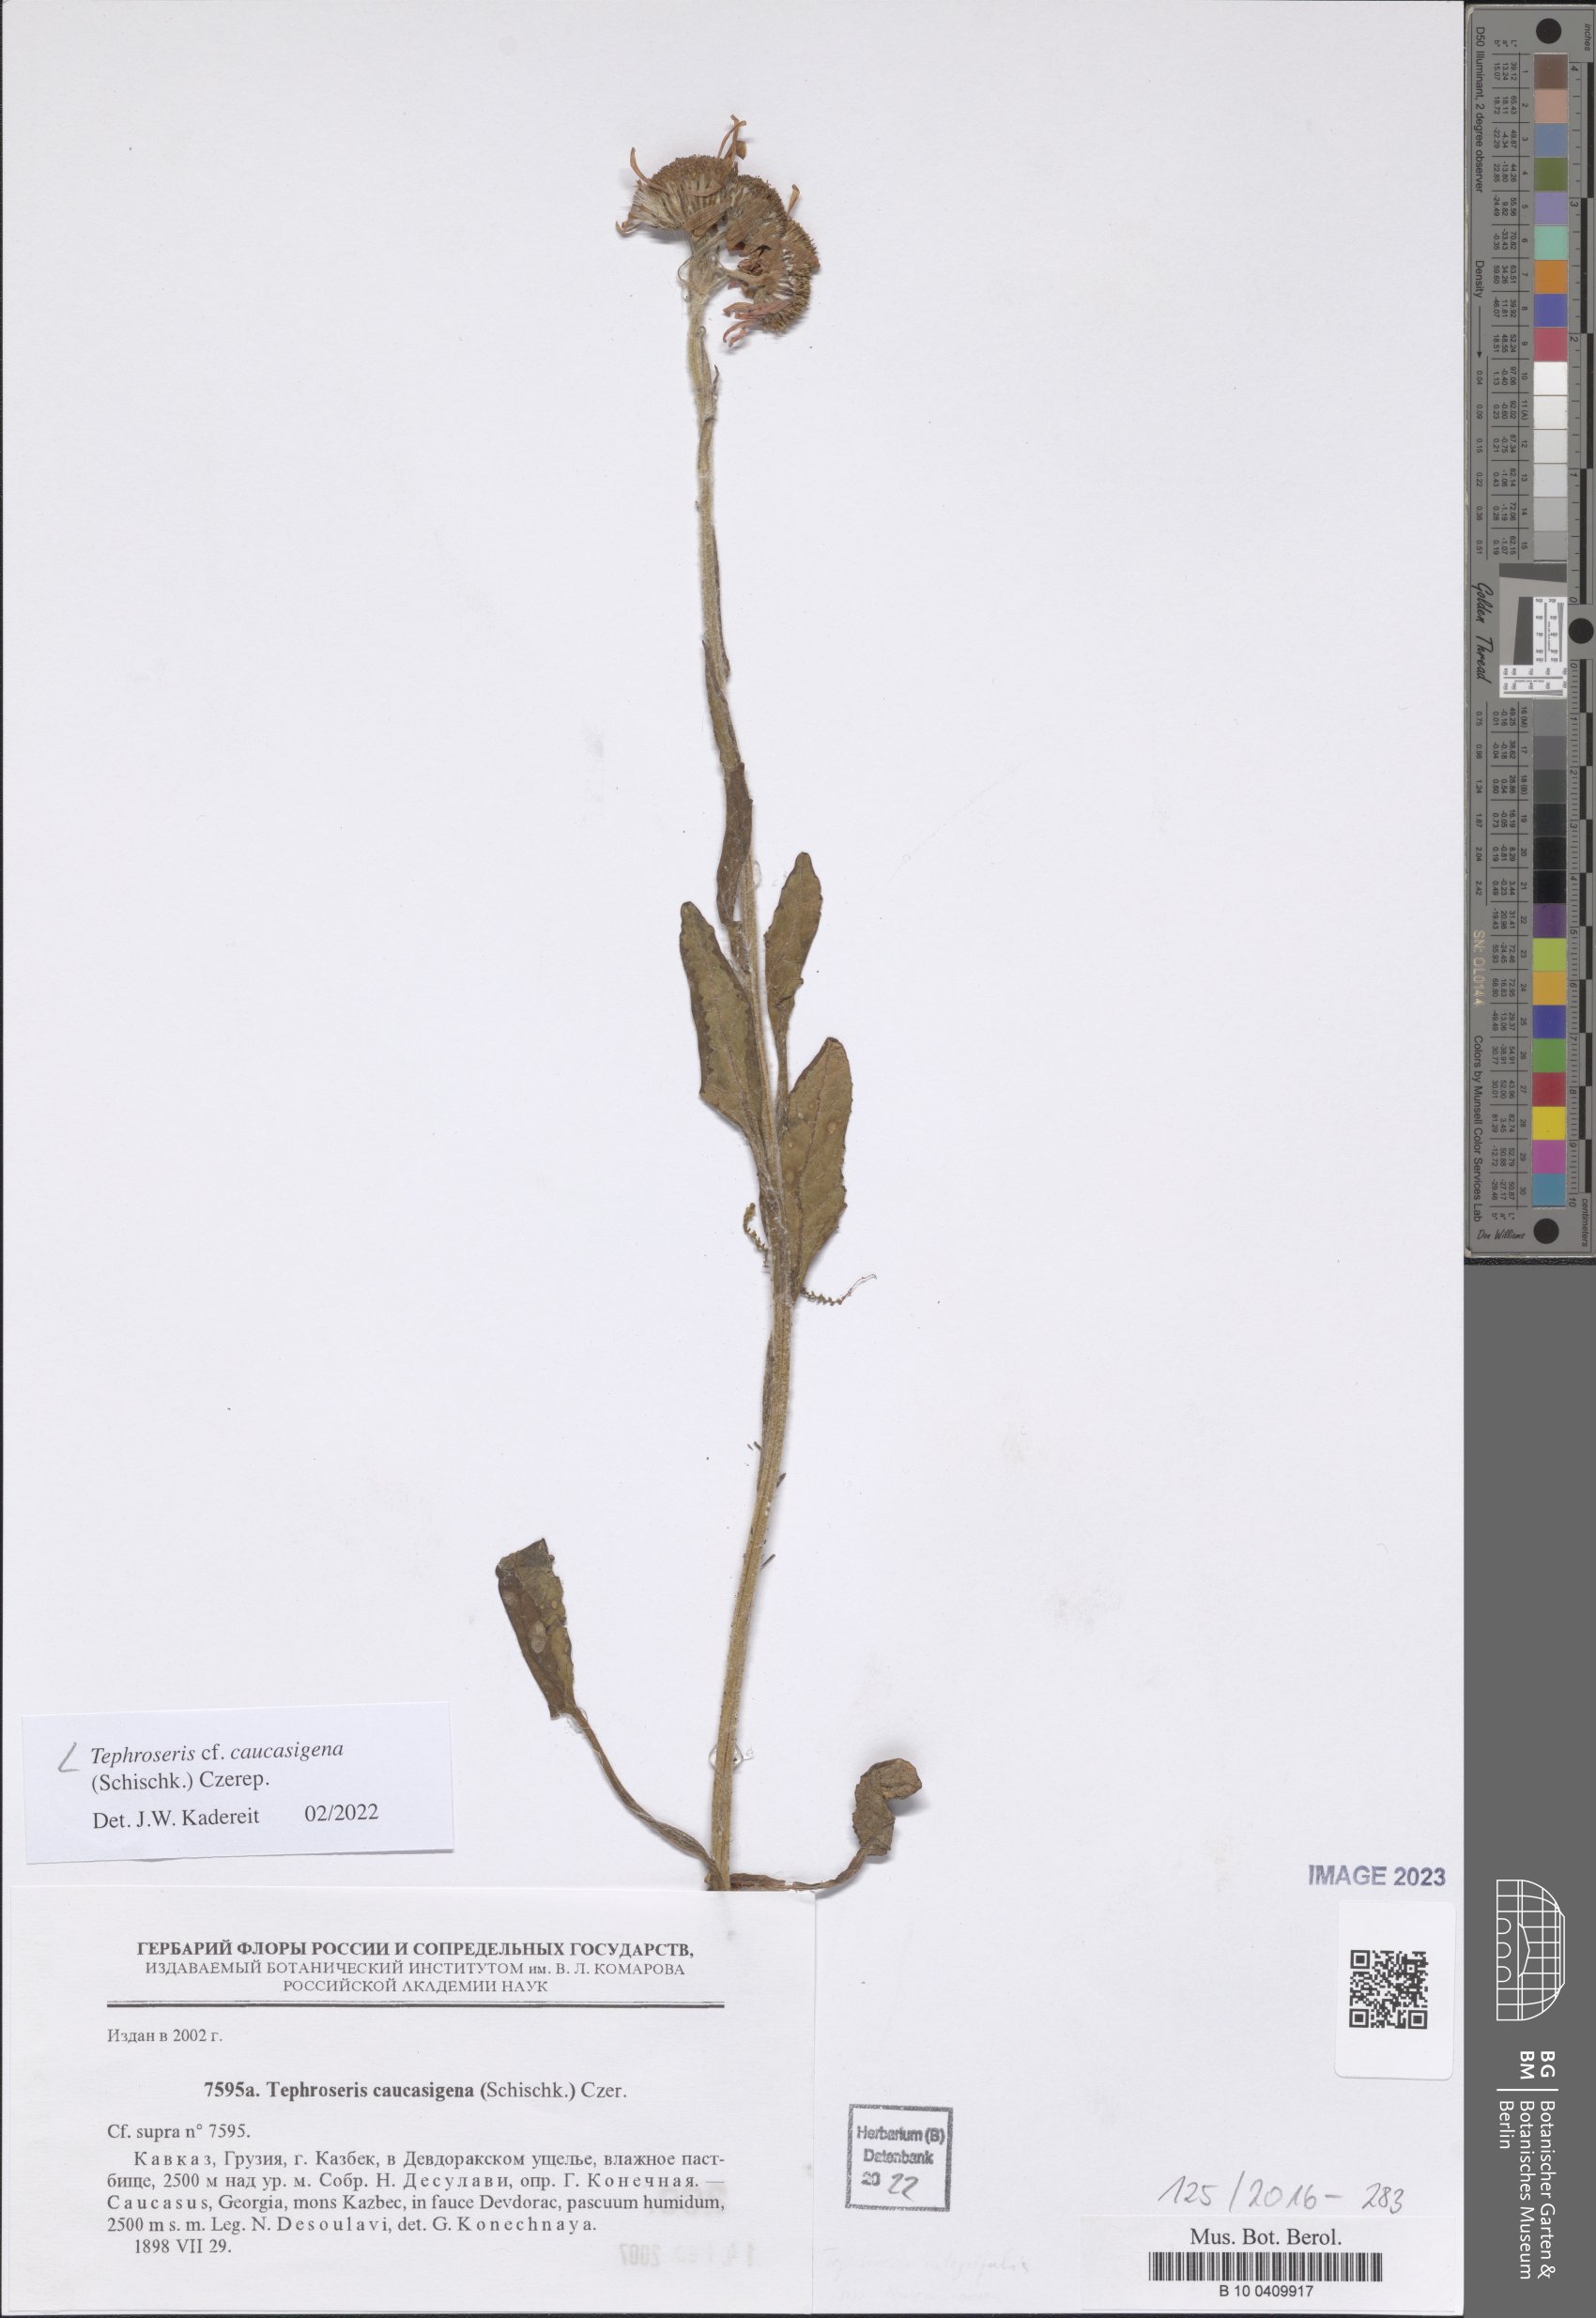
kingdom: Plantae
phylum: Tracheophyta
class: Magnoliopsida
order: Asterales
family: Asteraceae
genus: Tephroseris
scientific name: Tephroseris integrifolia
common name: Field fleawort
